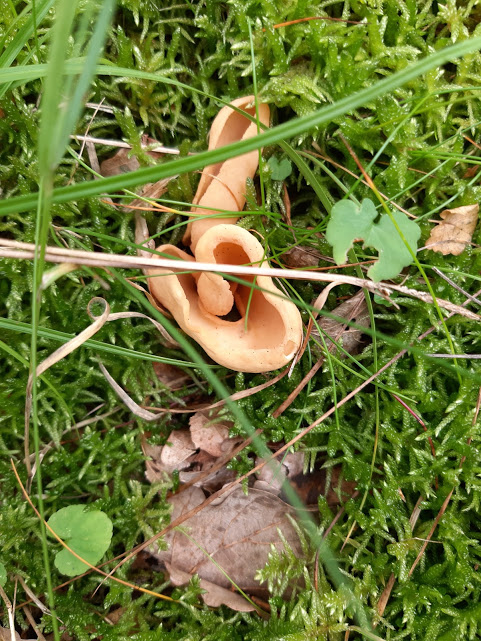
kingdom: Fungi
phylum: Ascomycota
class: Pezizomycetes
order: Pezizales
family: Otideaceae
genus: Otidea
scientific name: Otidea onotica
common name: æsel-ørebæger
